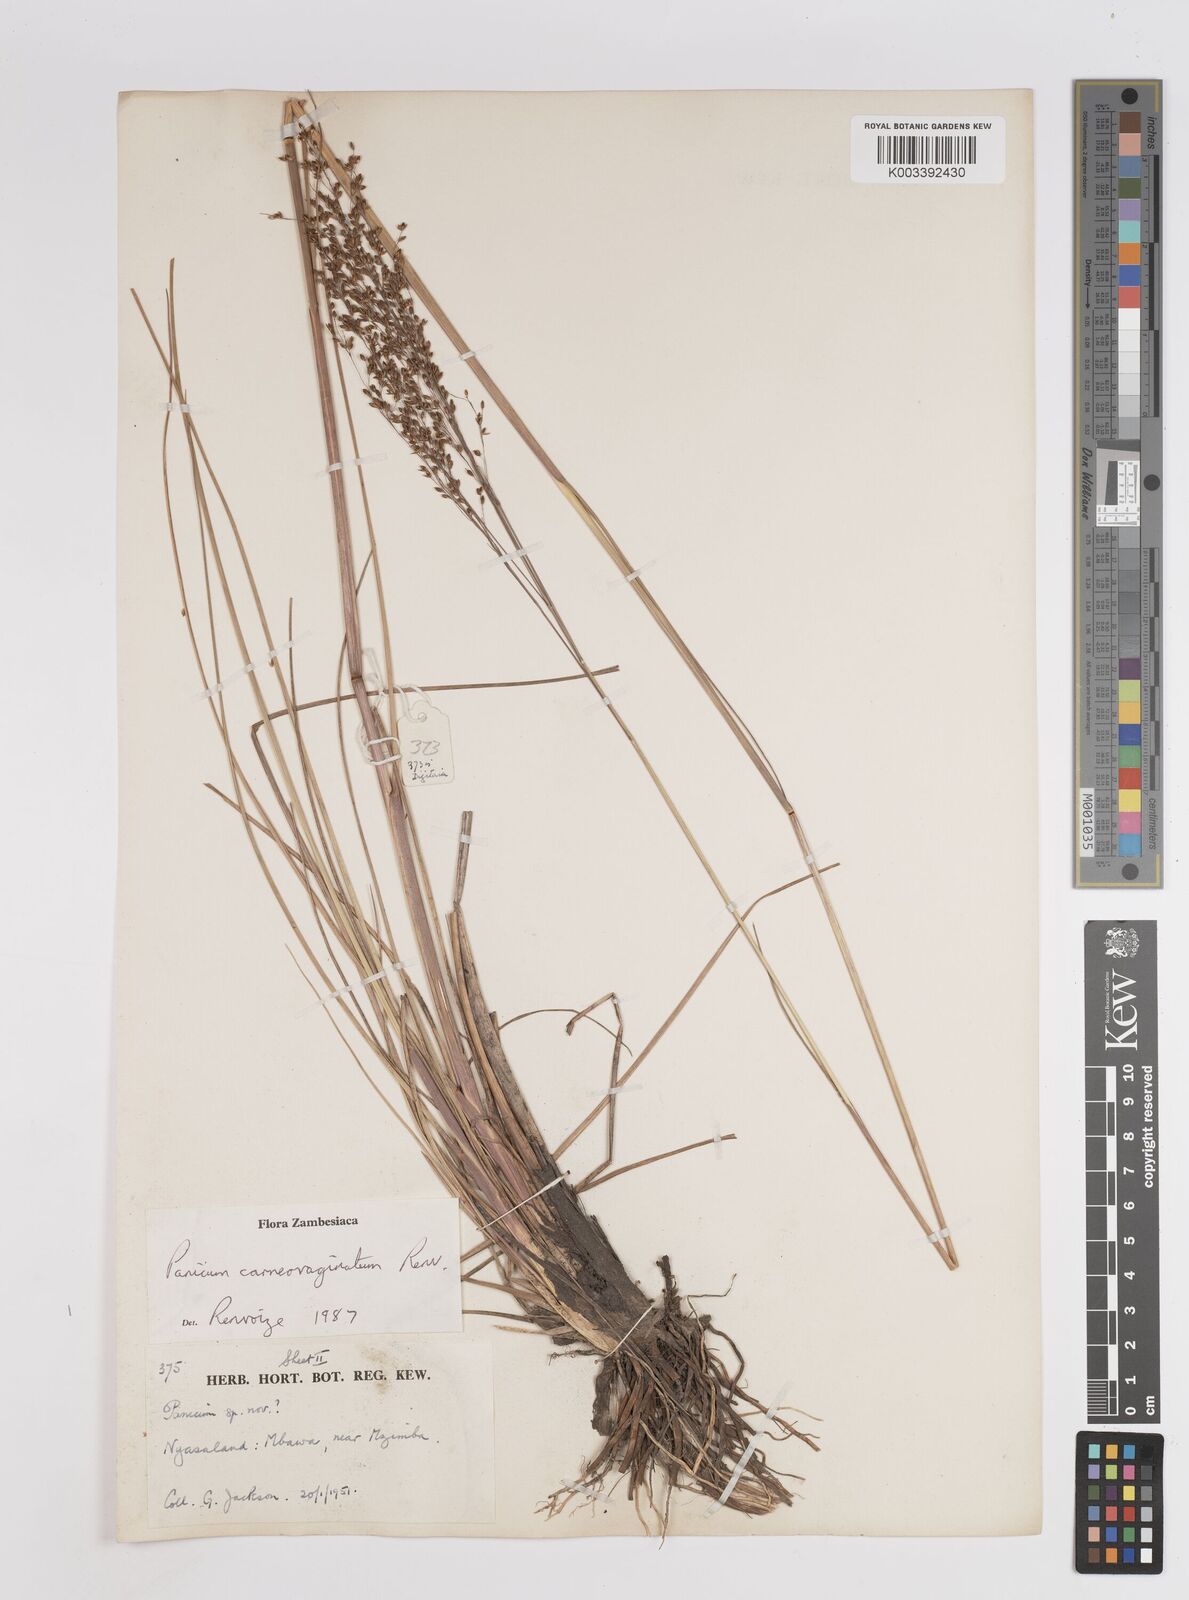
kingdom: Plantae
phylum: Tracheophyta
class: Liliopsida
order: Poales
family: Poaceae
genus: Panicum
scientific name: Panicum carneovaginatum
